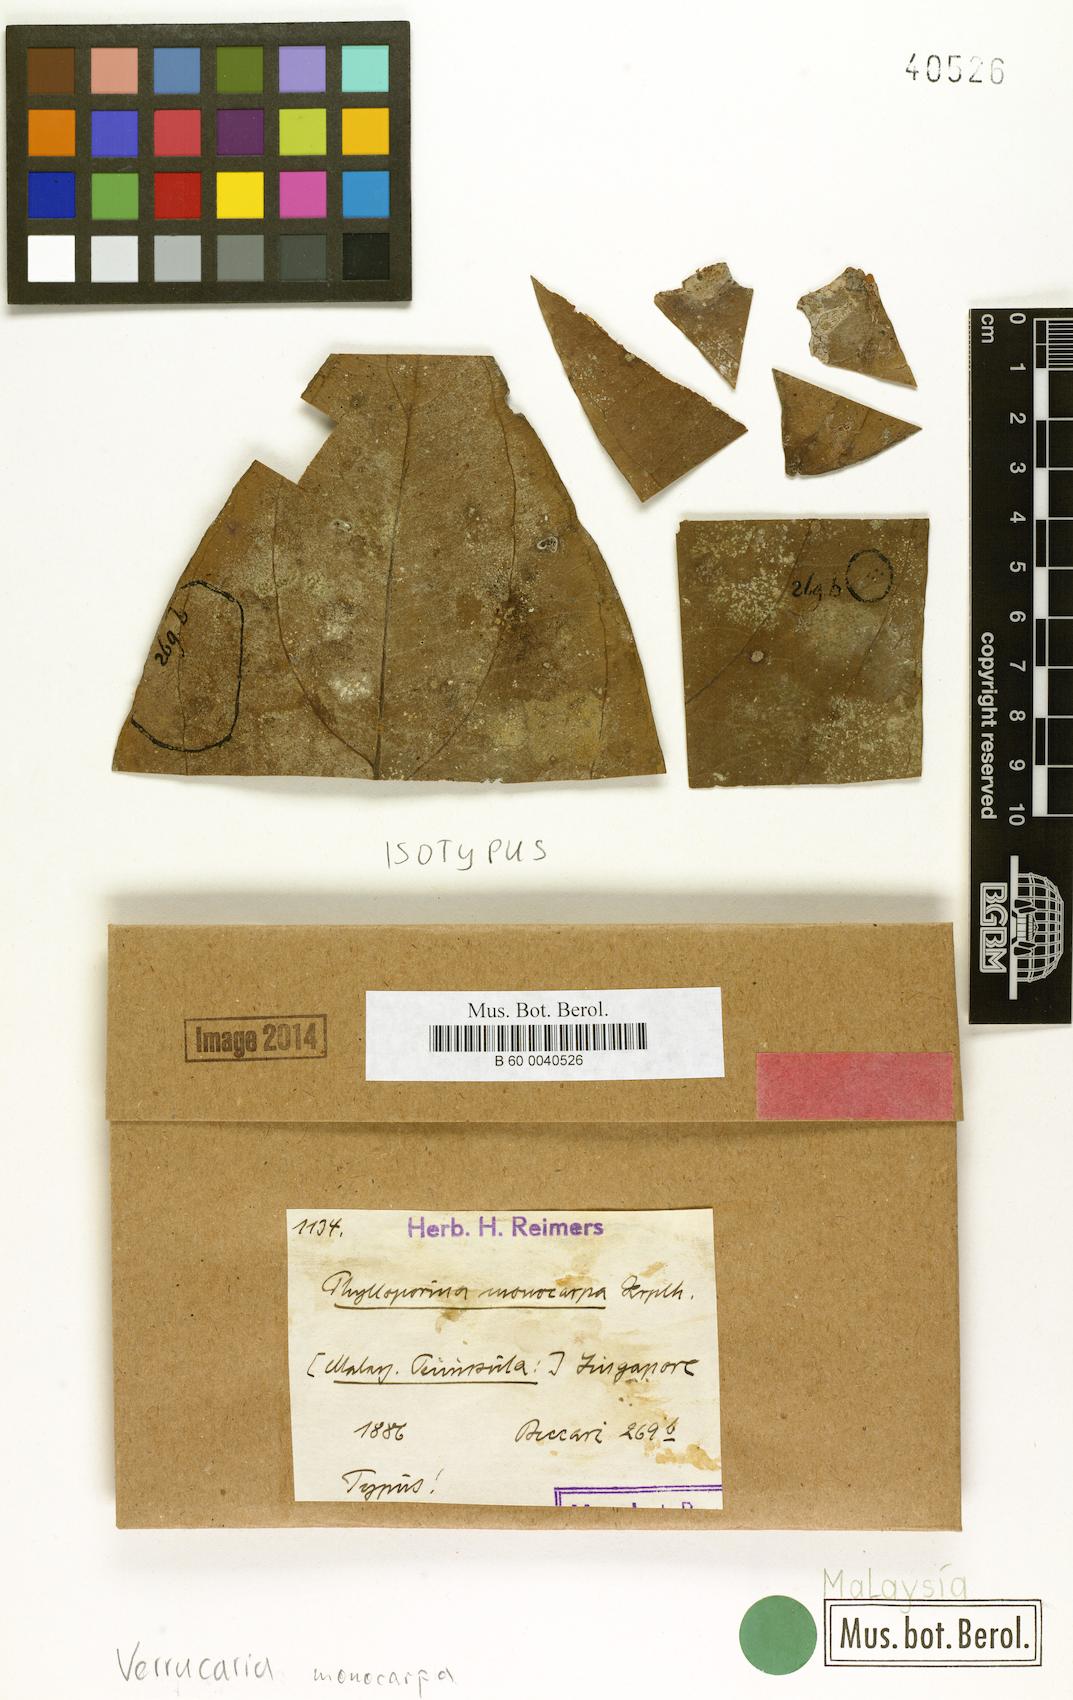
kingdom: Fungi
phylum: Ascomycota
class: Eurotiomycetes
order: Verrucariales
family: Verrucariaceae
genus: Verrucaria
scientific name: Verrucaria
